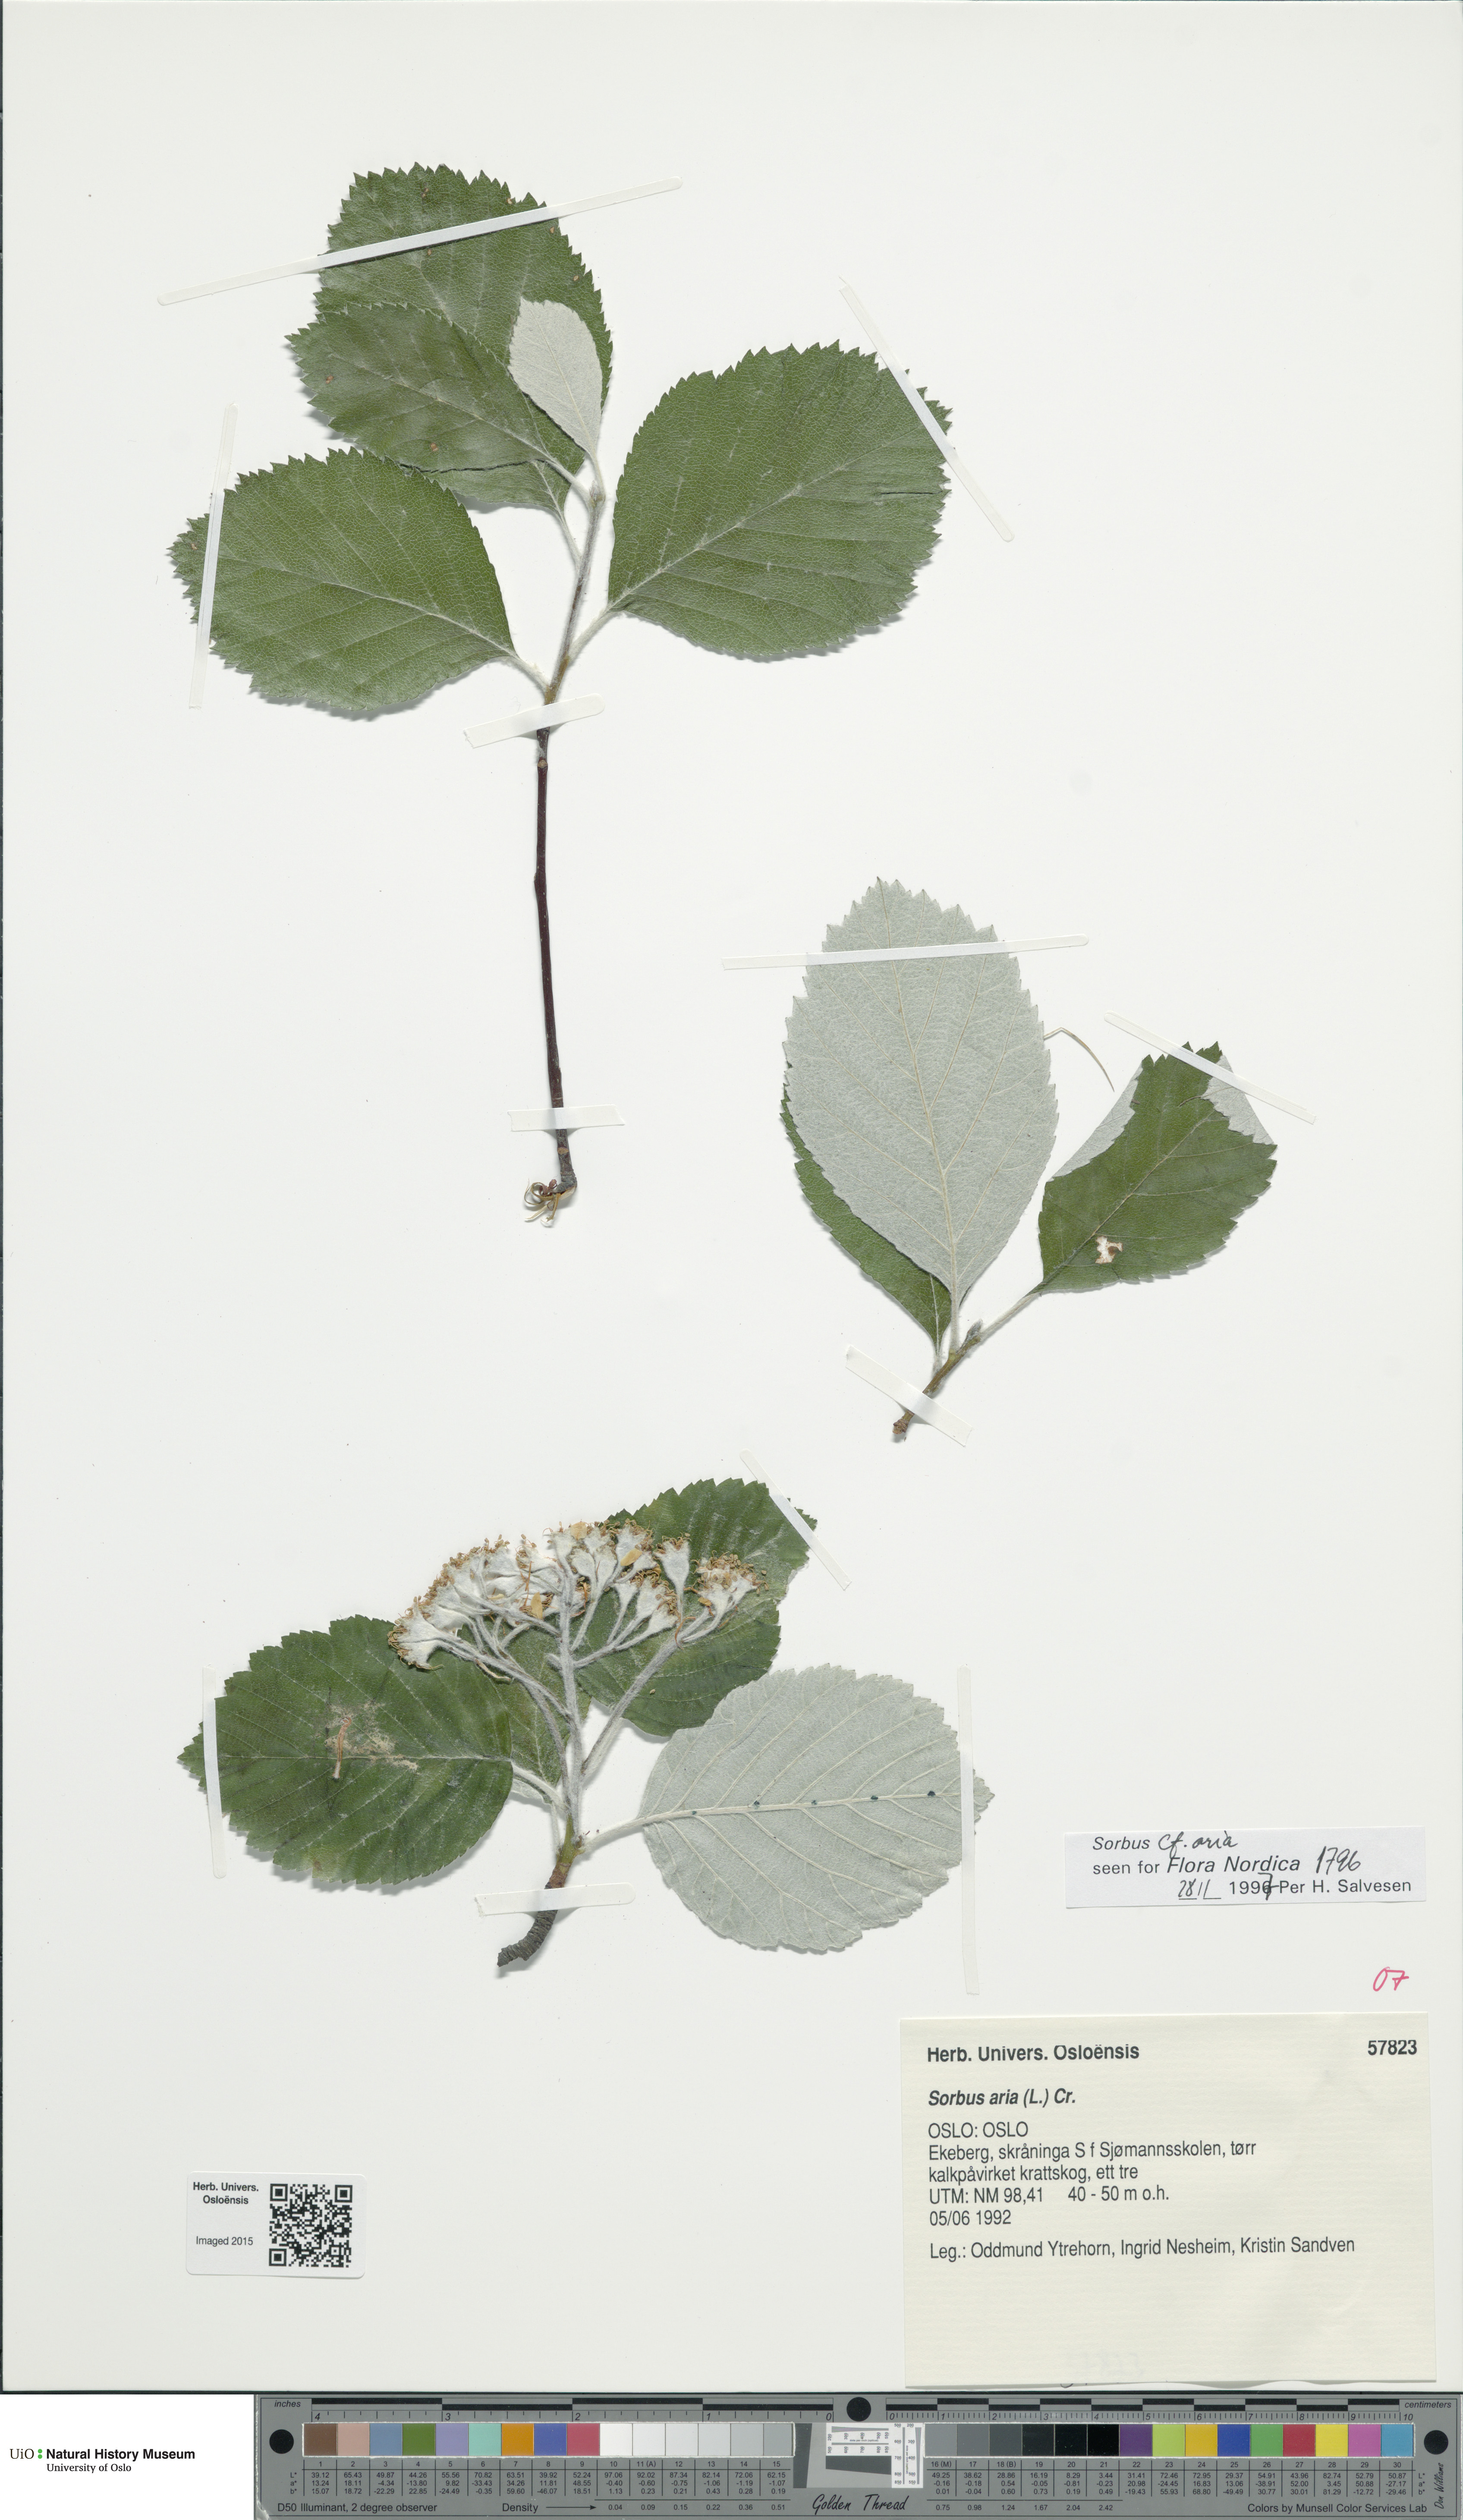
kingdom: Plantae
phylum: Tracheophyta
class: Magnoliopsida
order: Rosales
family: Rosaceae
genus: Aria
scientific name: Aria edulis
